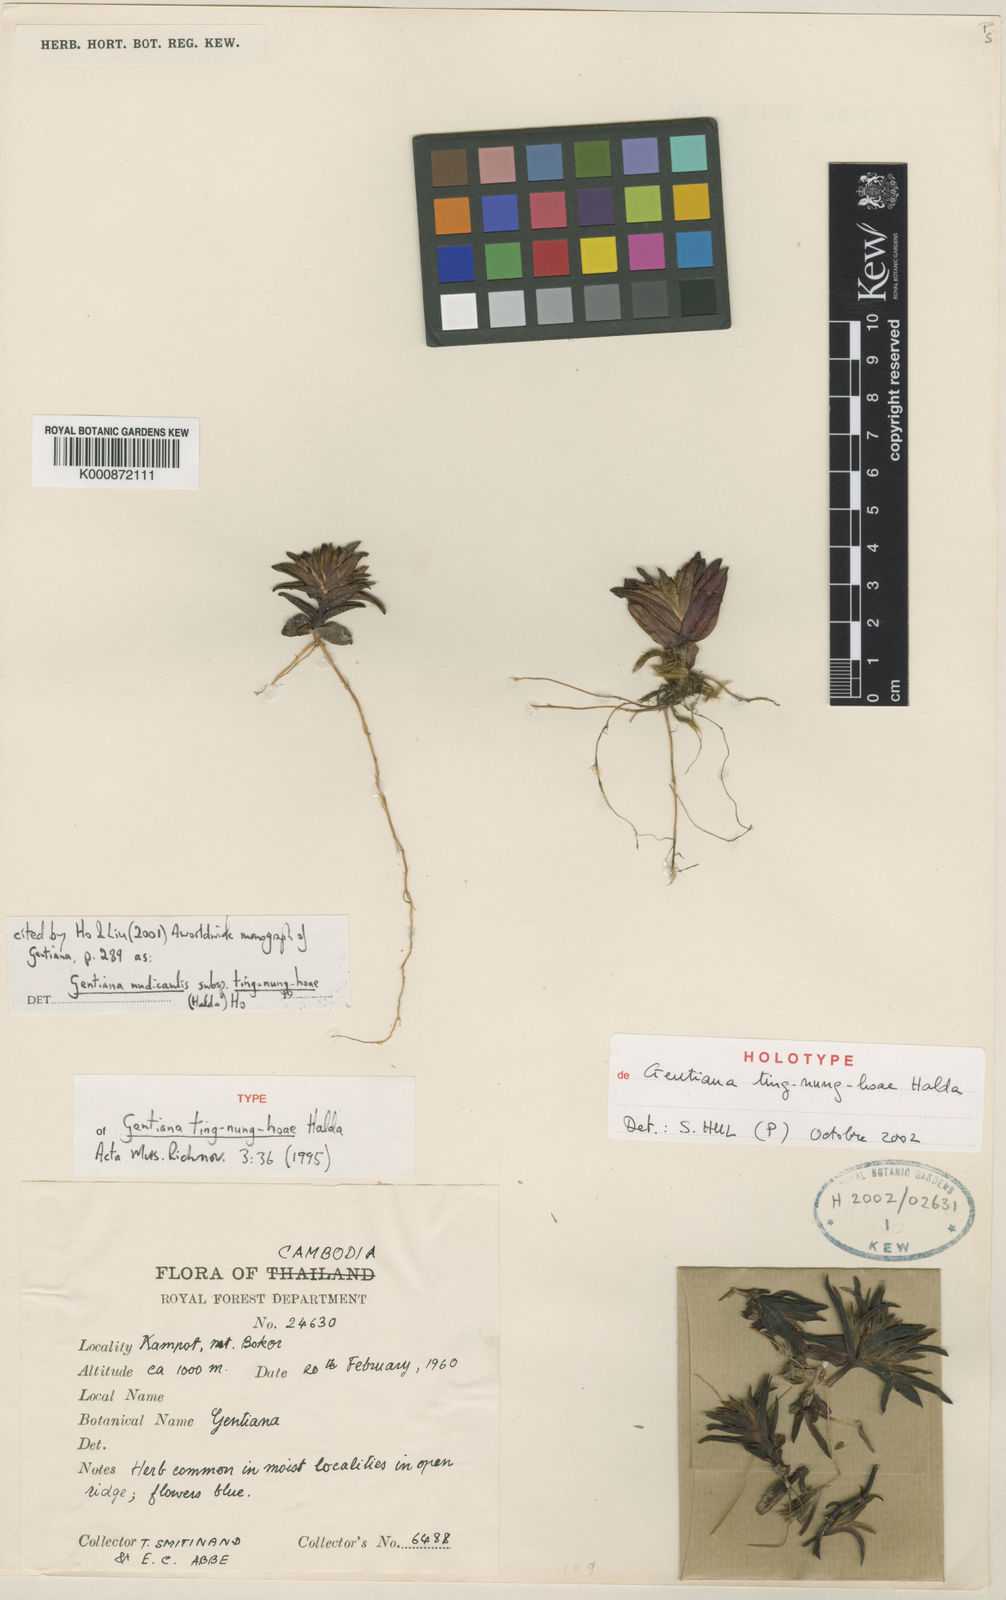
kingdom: Plantae
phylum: Tracheophyta
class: Magnoliopsida
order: Gentianales
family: Gentianaceae
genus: Gentiana
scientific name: Gentiana nudicaulis
